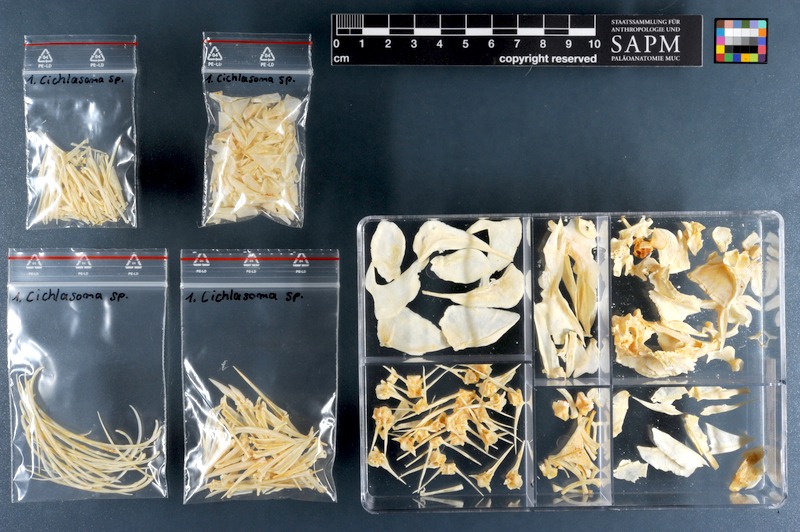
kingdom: Animalia
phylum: Chordata
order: Perciformes
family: Cichlidae
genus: Cichlasoma
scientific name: Cichlasoma
